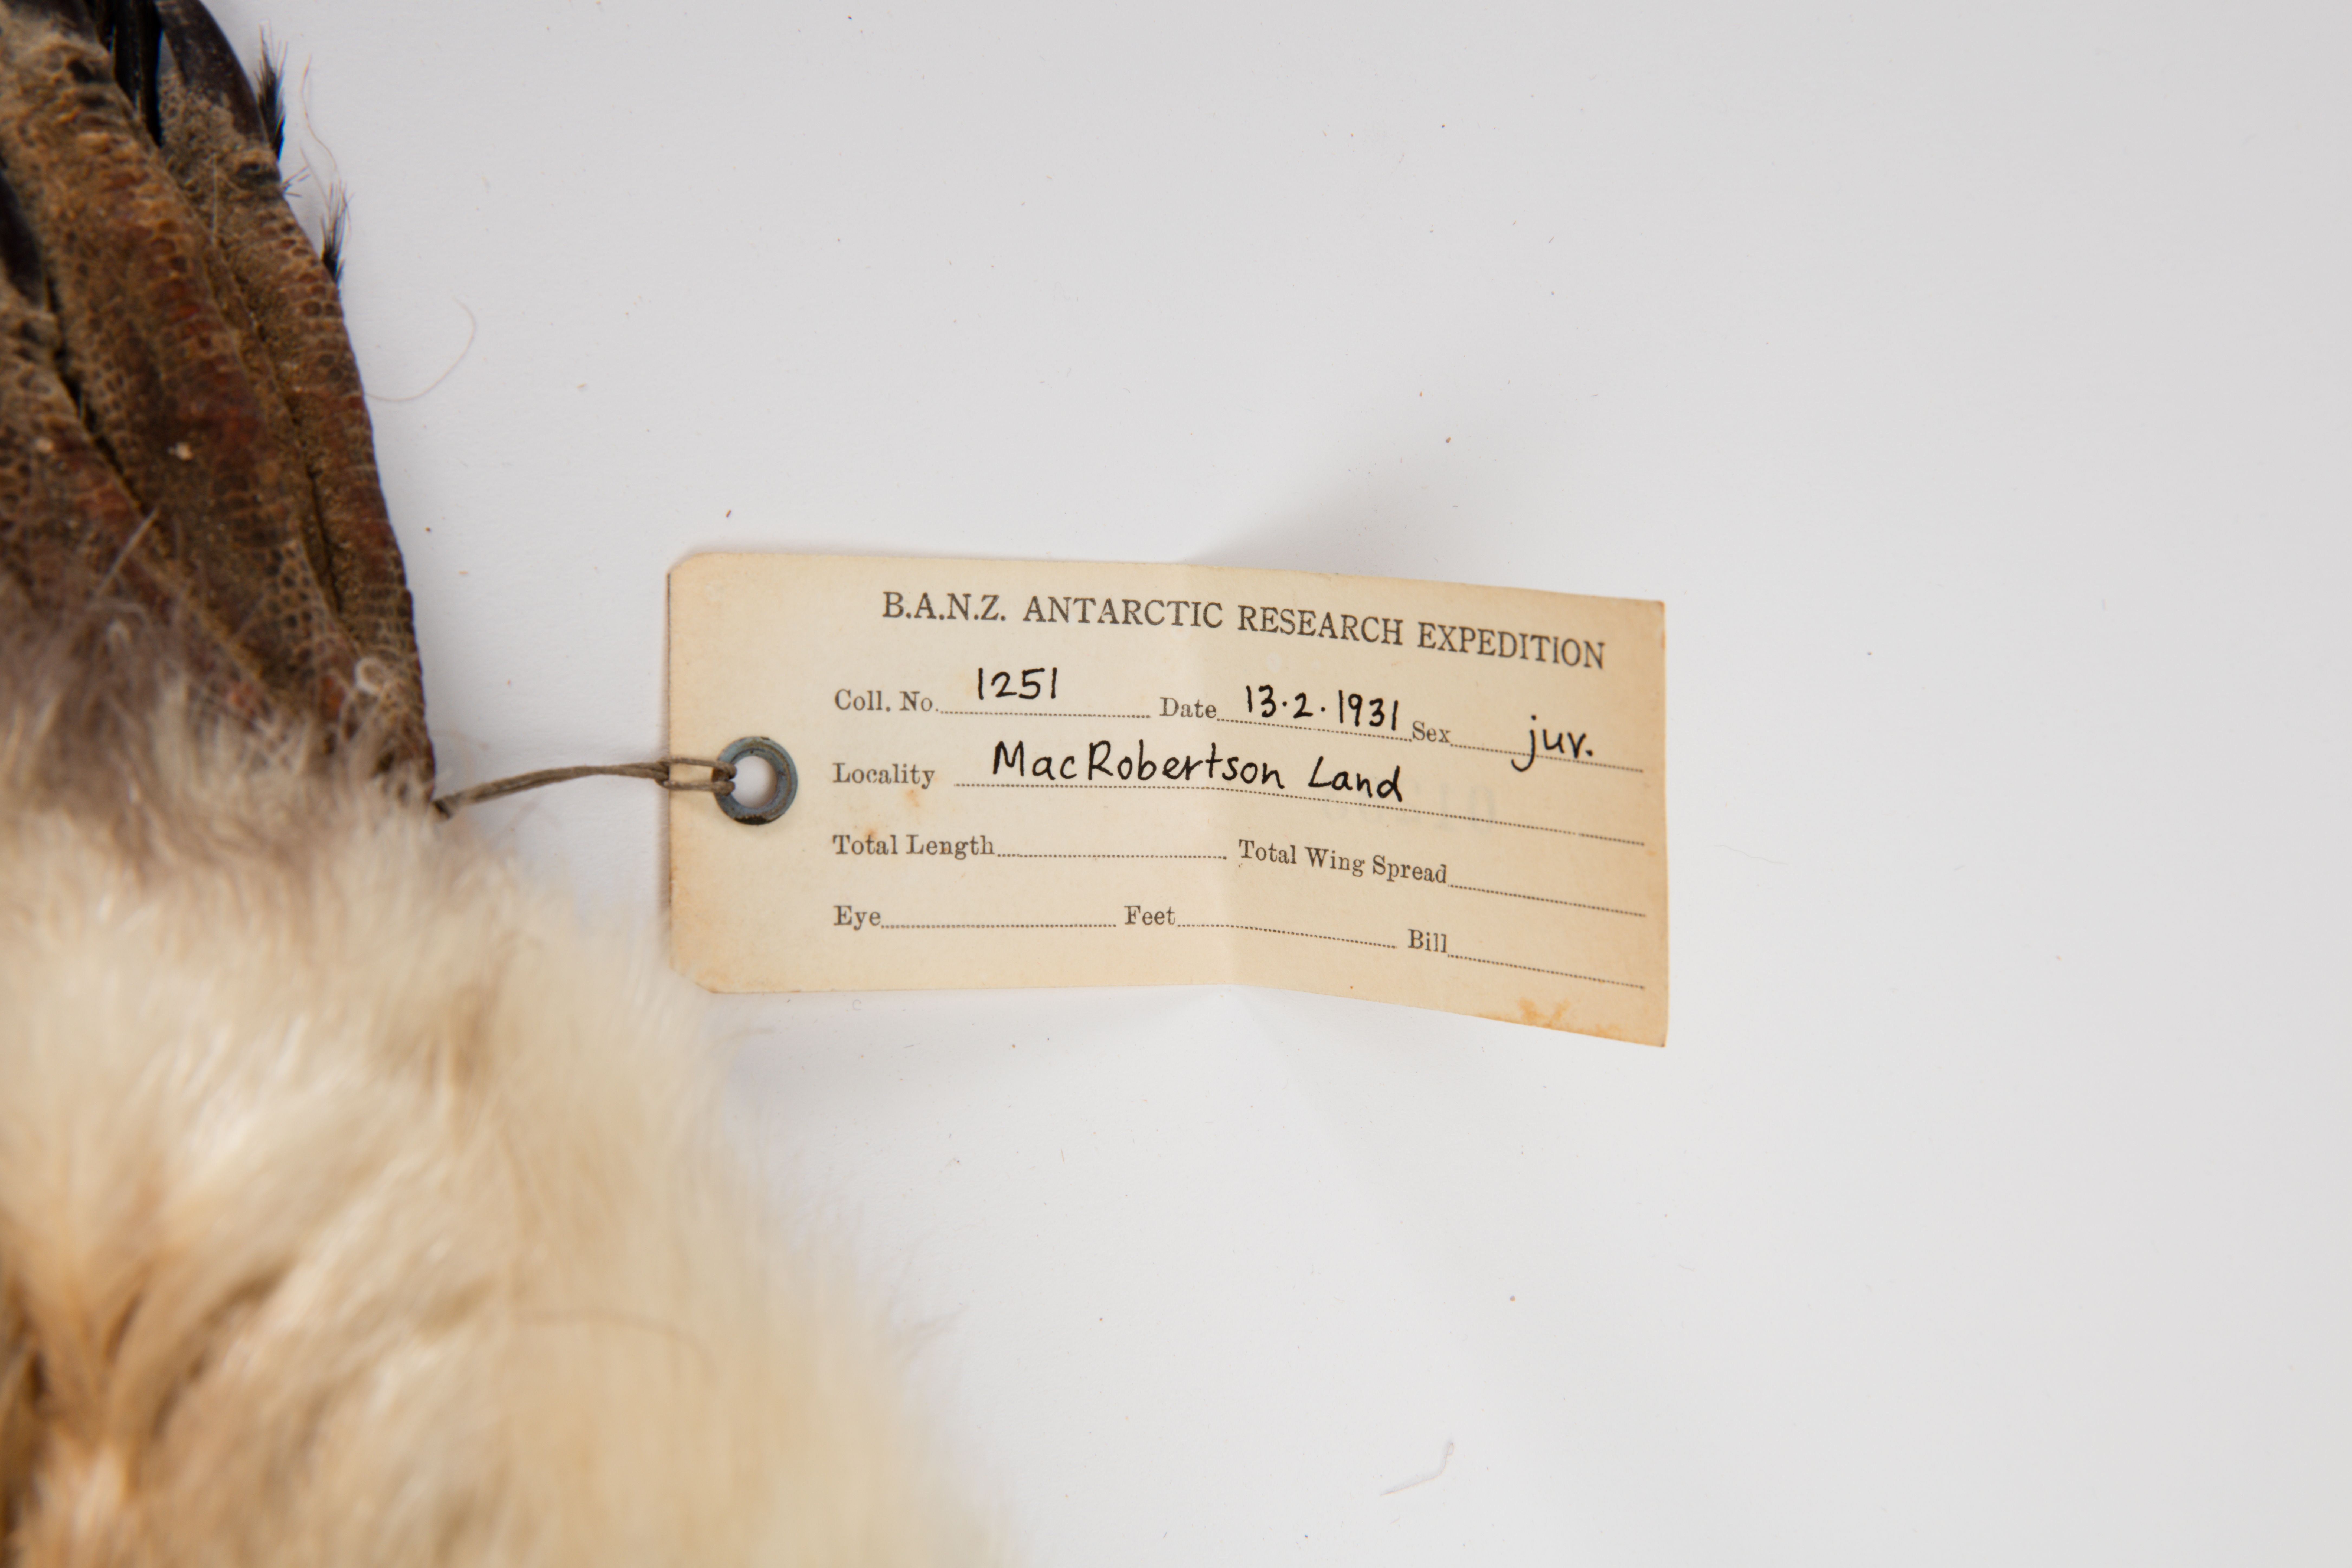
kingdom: Animalia
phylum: Chordata
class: Aves
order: Sphenisciformes
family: Spheniscidae
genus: Pygoscelis
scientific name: Pygoscelis adeliae
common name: Adelie penguin
